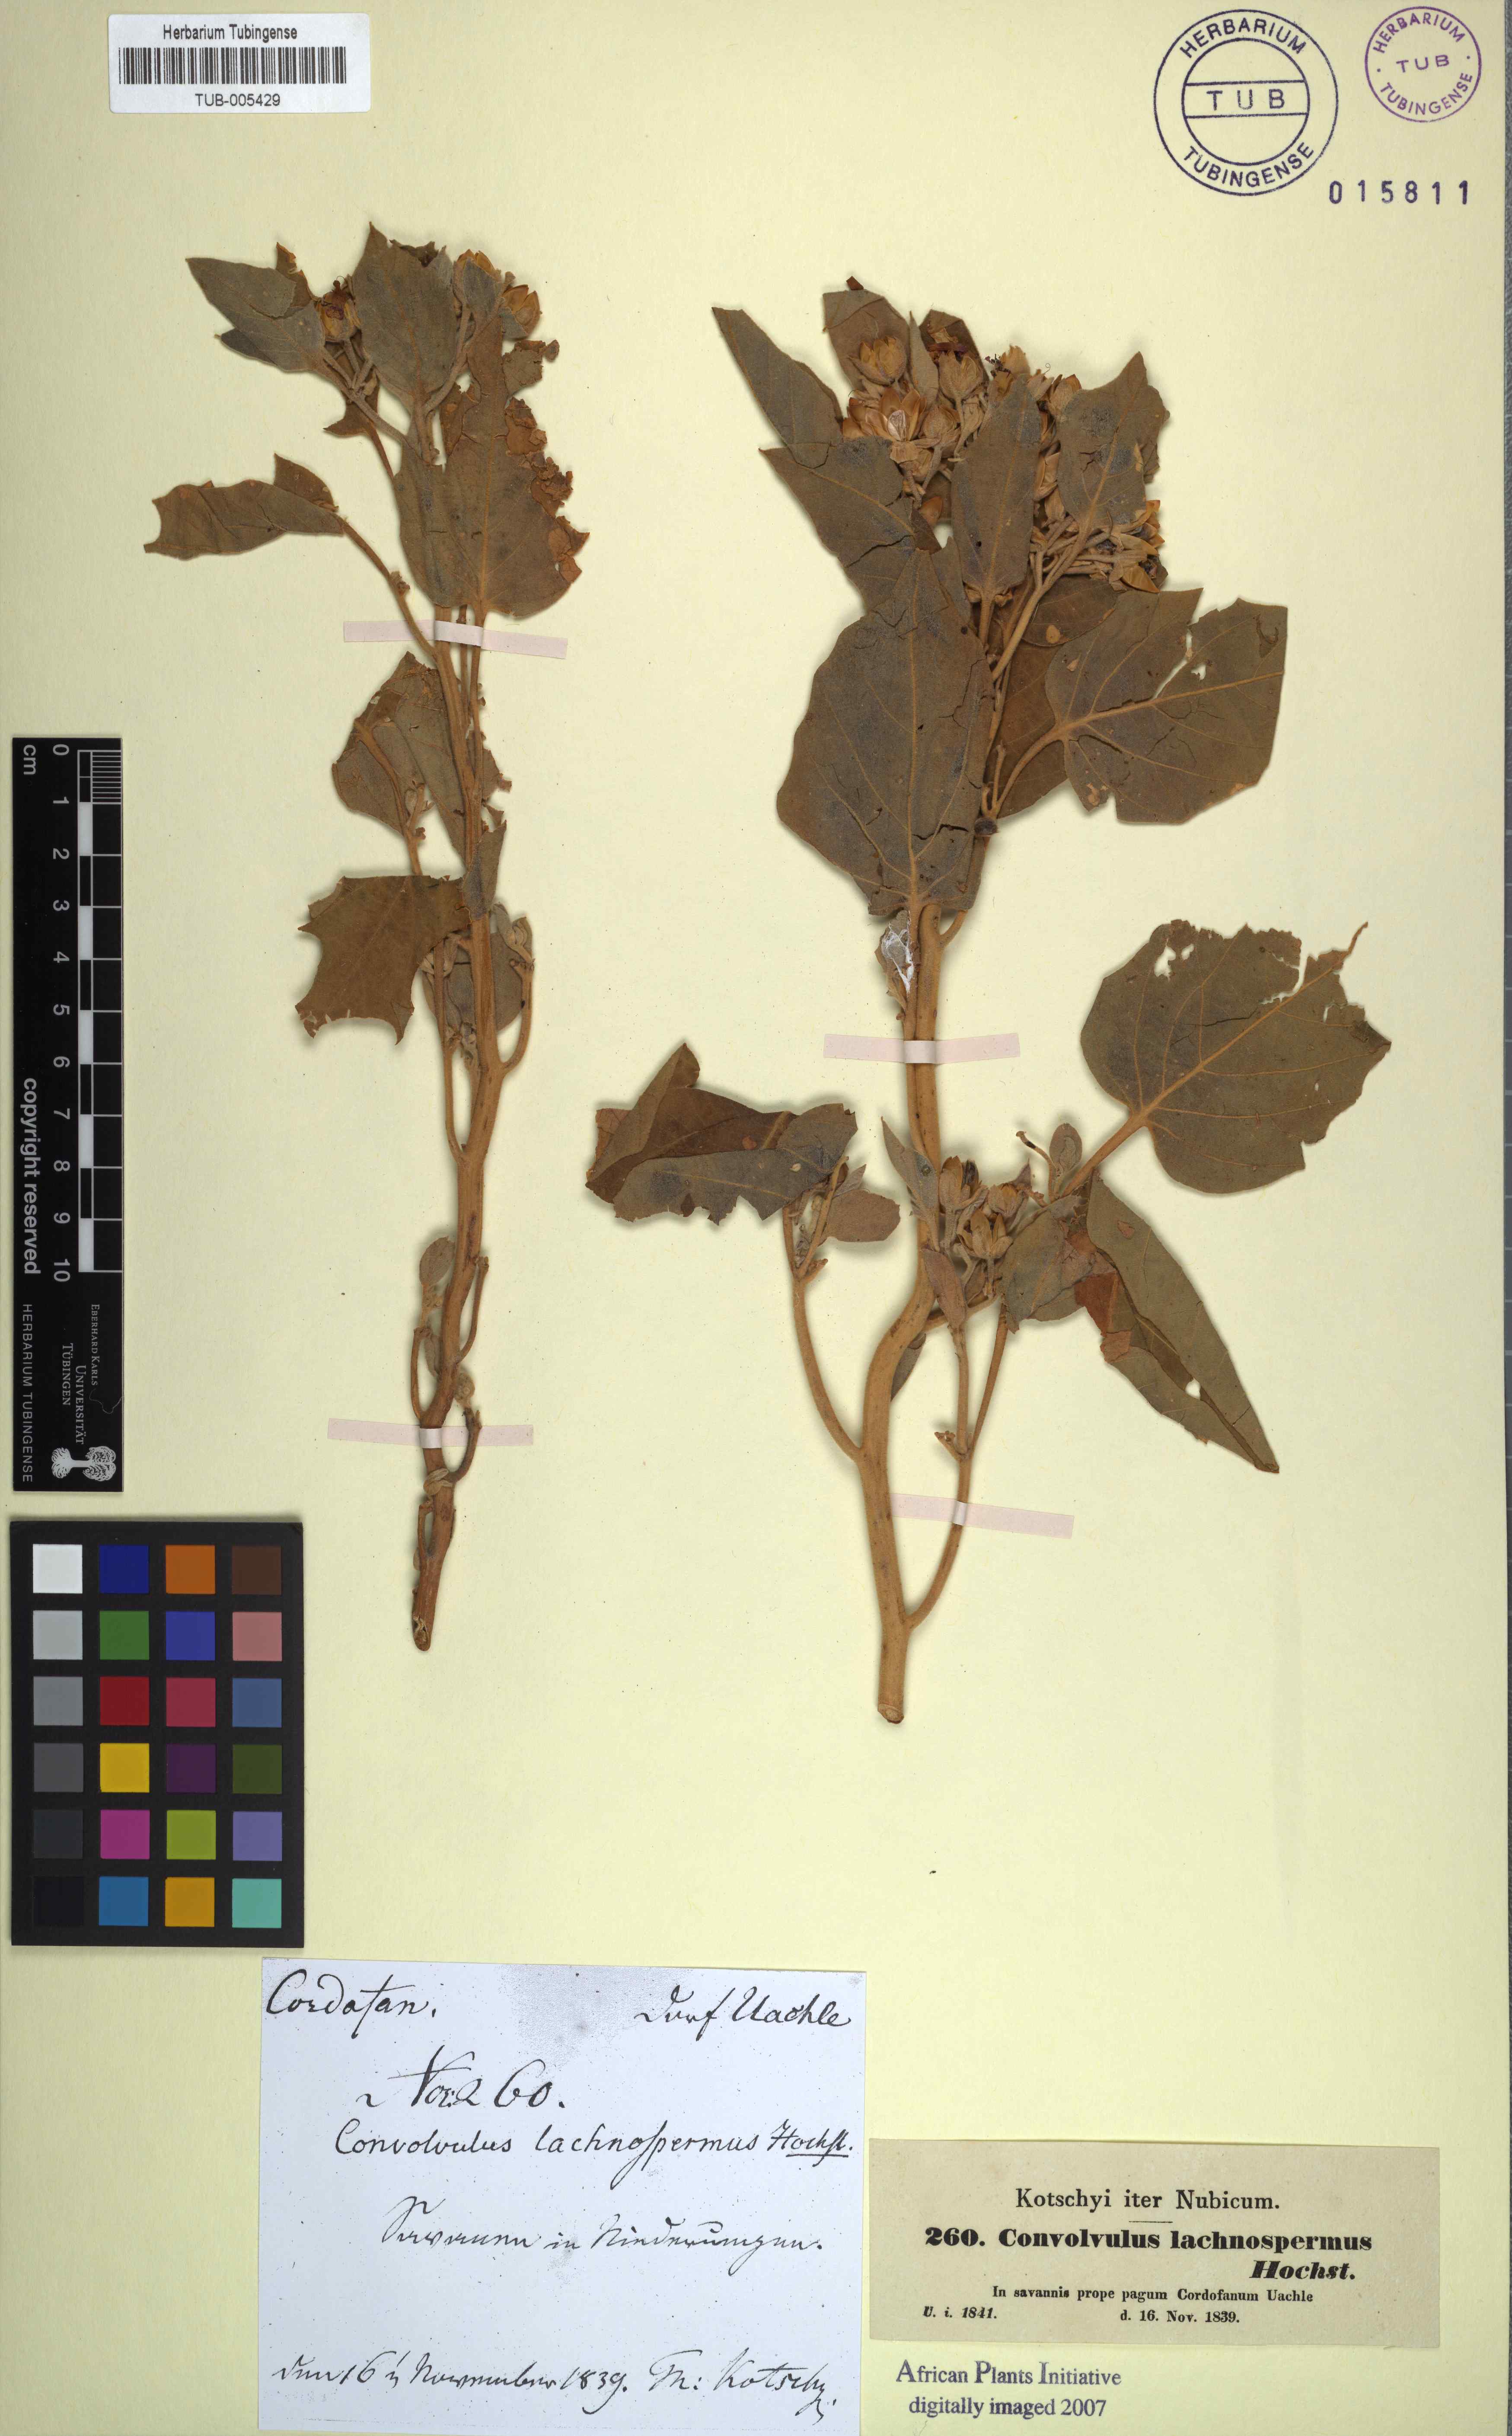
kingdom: Plantae
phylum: Tracheophyta
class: Magnoliopsida
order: Solanales
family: Convolvulaceae
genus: Astripomoea
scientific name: Astripomoea lachnosperma
